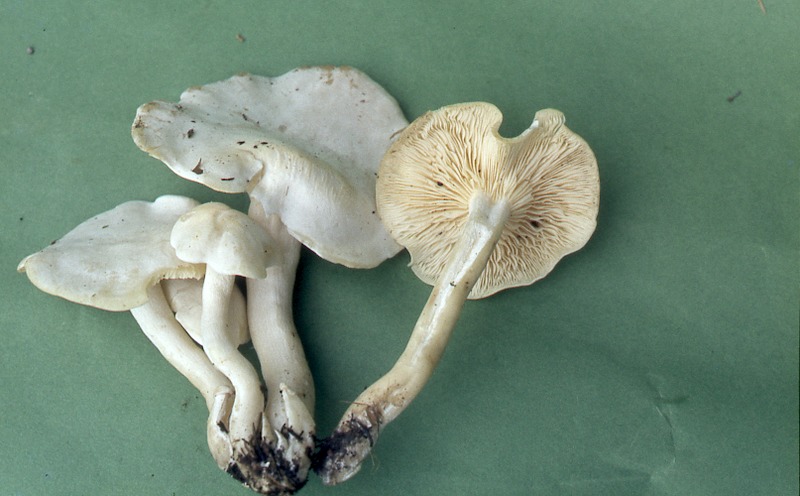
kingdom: Fungi
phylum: Basidiomycota
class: Agaricomycetes
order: Agaricales
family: Tricholomataceae
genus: Leucocybe
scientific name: Leucocybe connata
